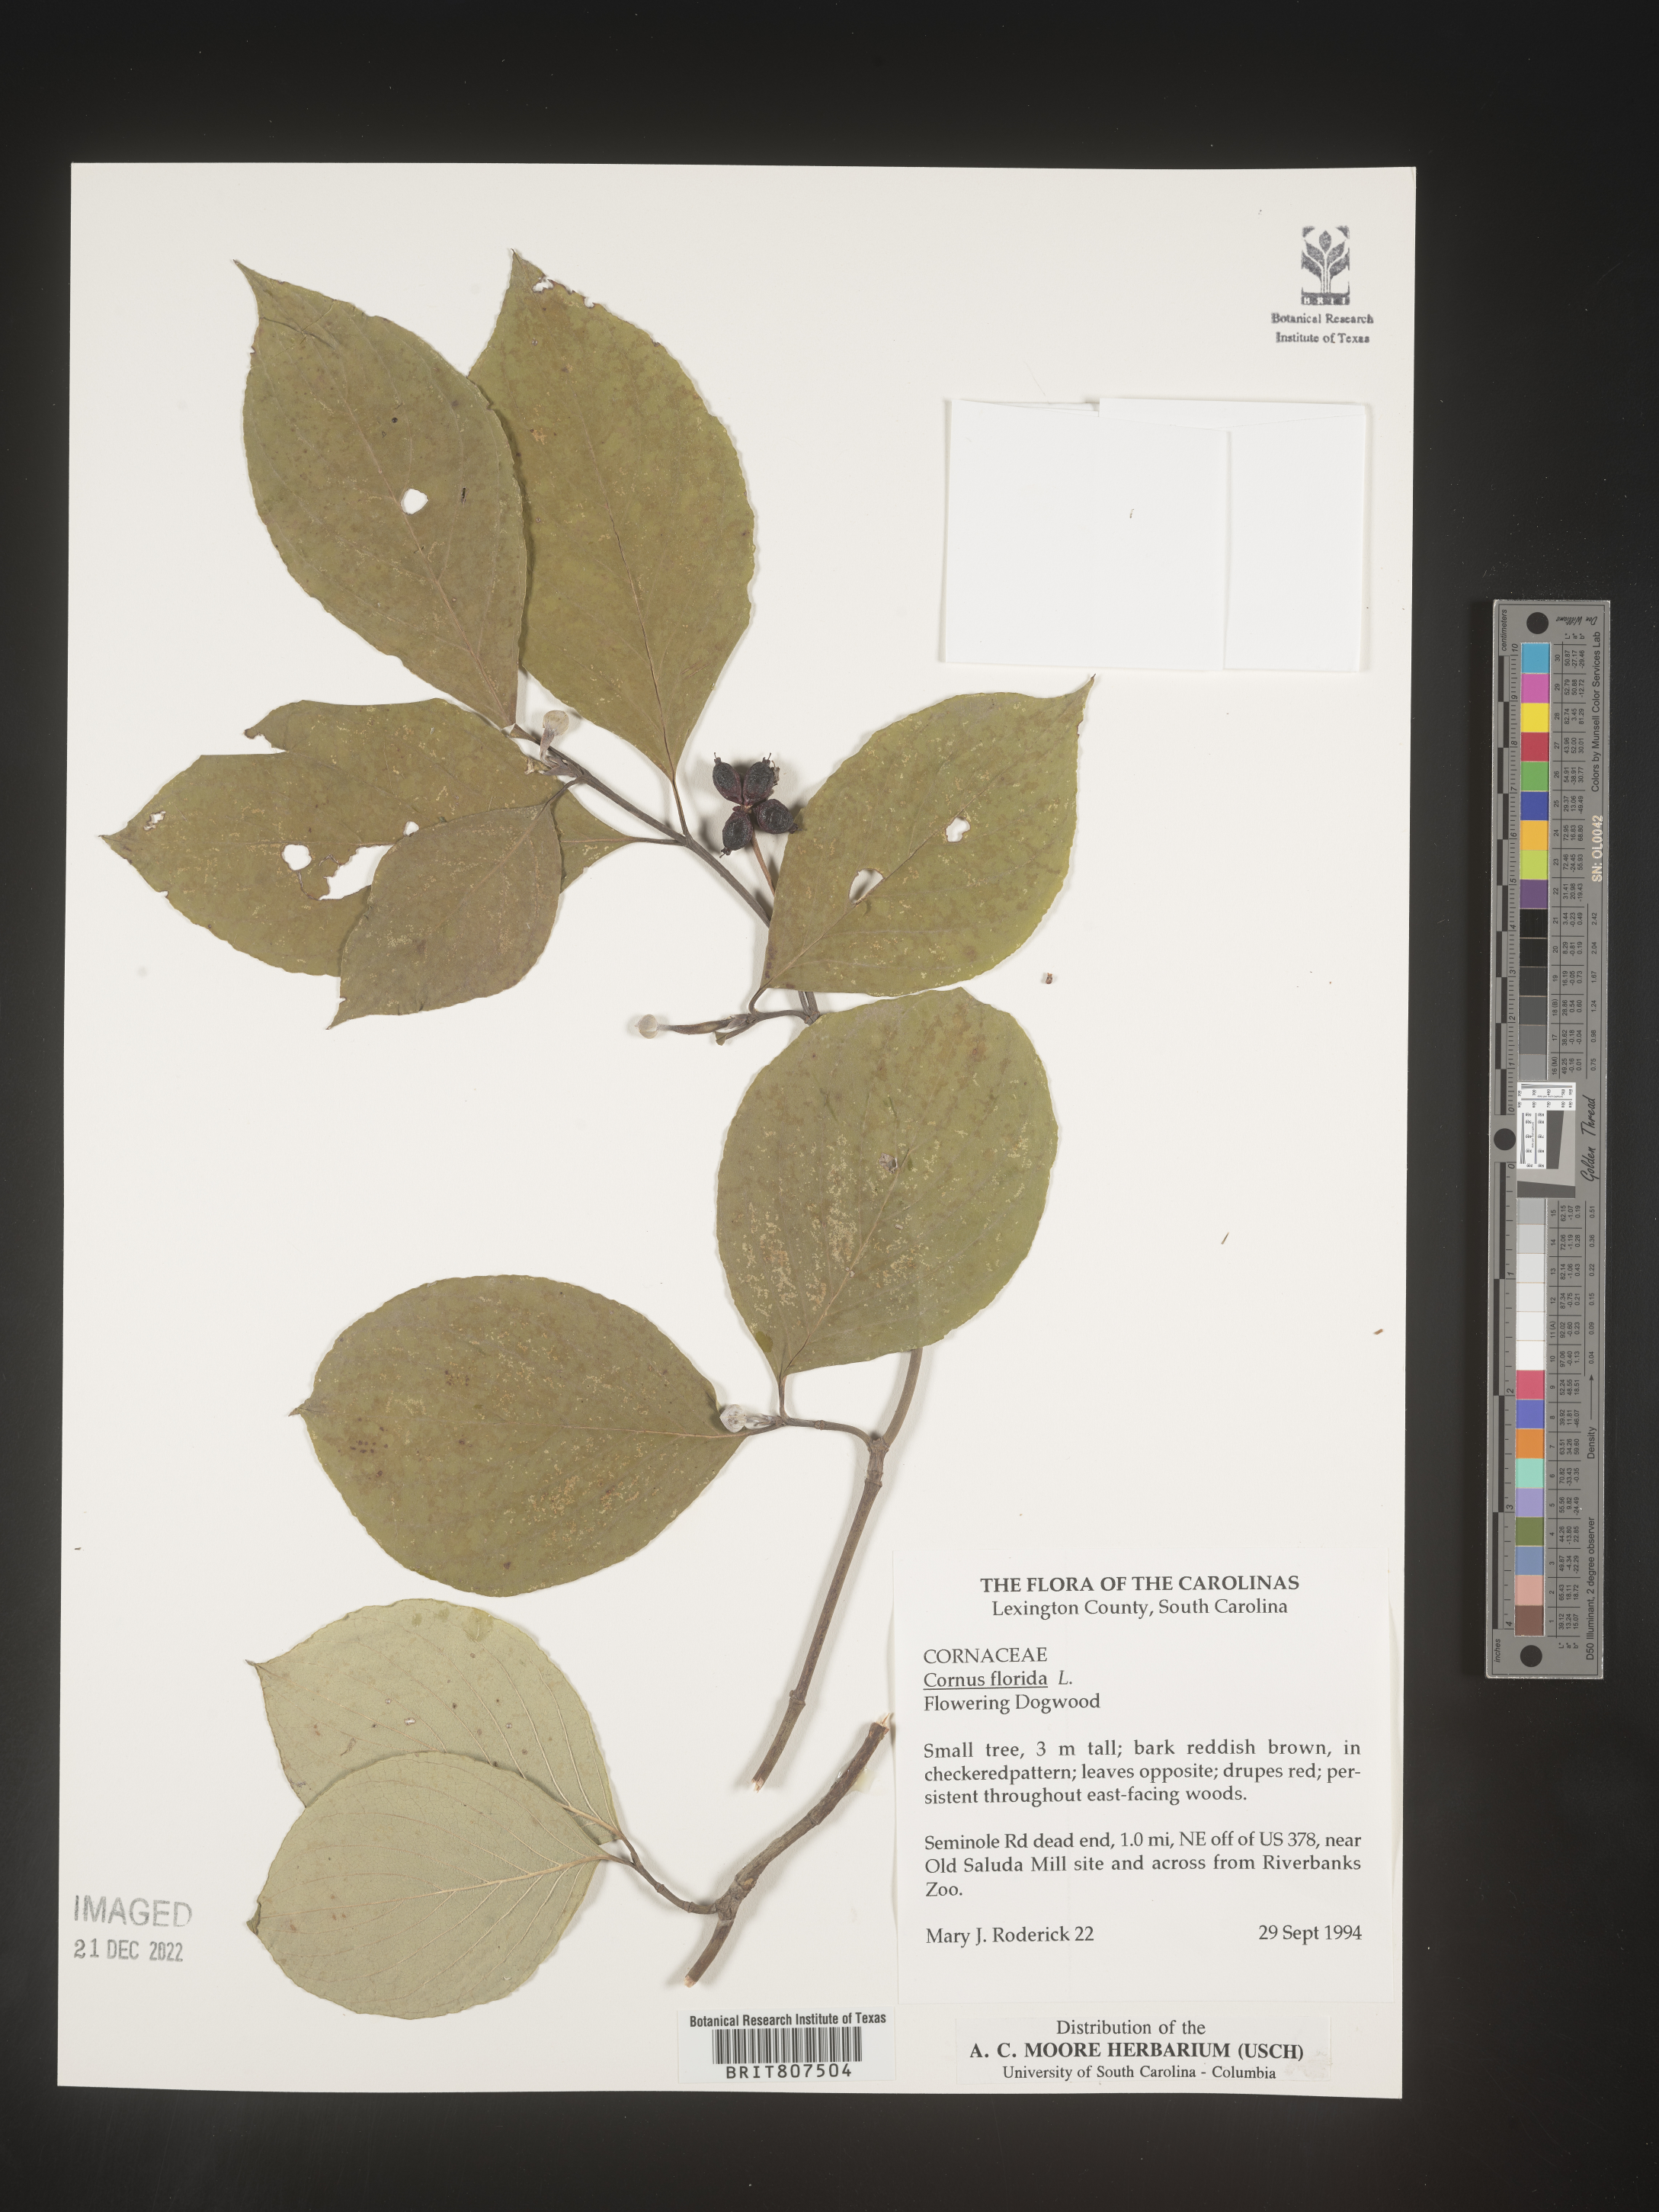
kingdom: Plantae
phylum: Tracheophyta
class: Magnoliopsida
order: Cornales
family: Cornaceae
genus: Cornus
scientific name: Cornus florida
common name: Flowering dogwood
